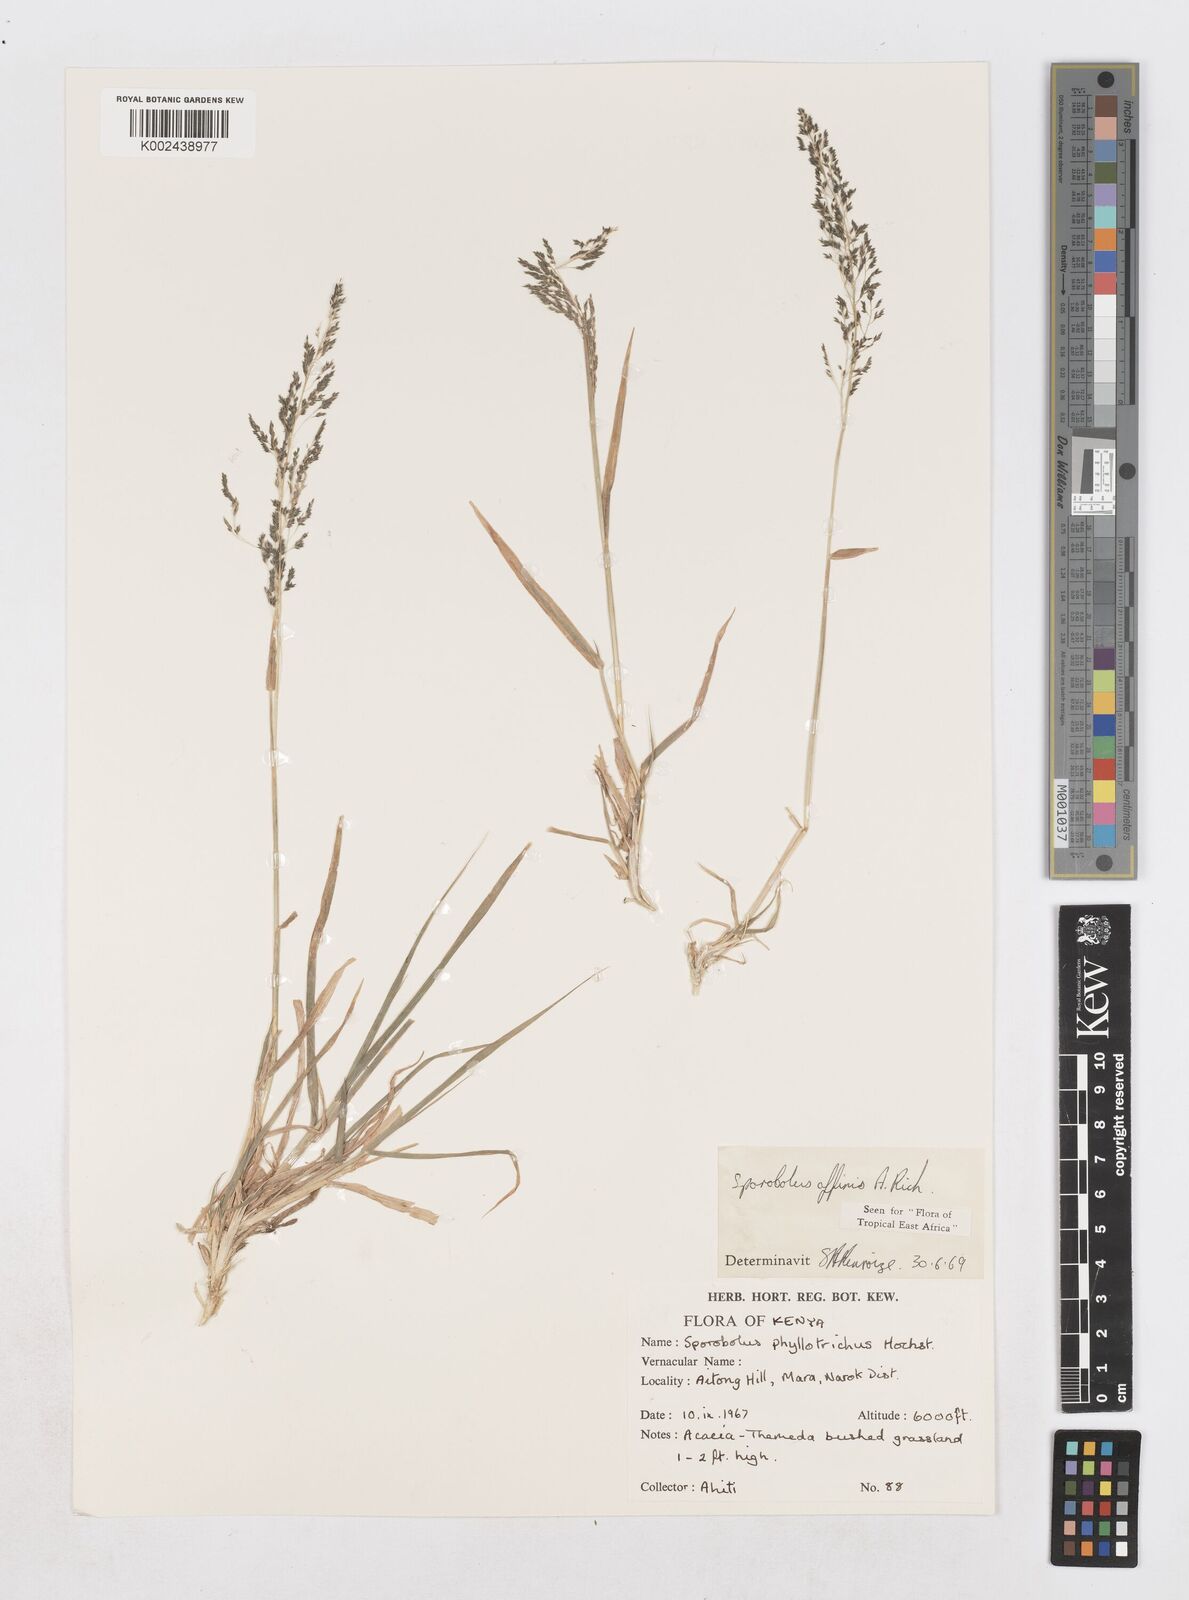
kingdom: Plantae
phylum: Tracheophyta
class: Liliopsida
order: Poales
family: Poaceae
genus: Sporobolus
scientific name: Sporobolus confinis
